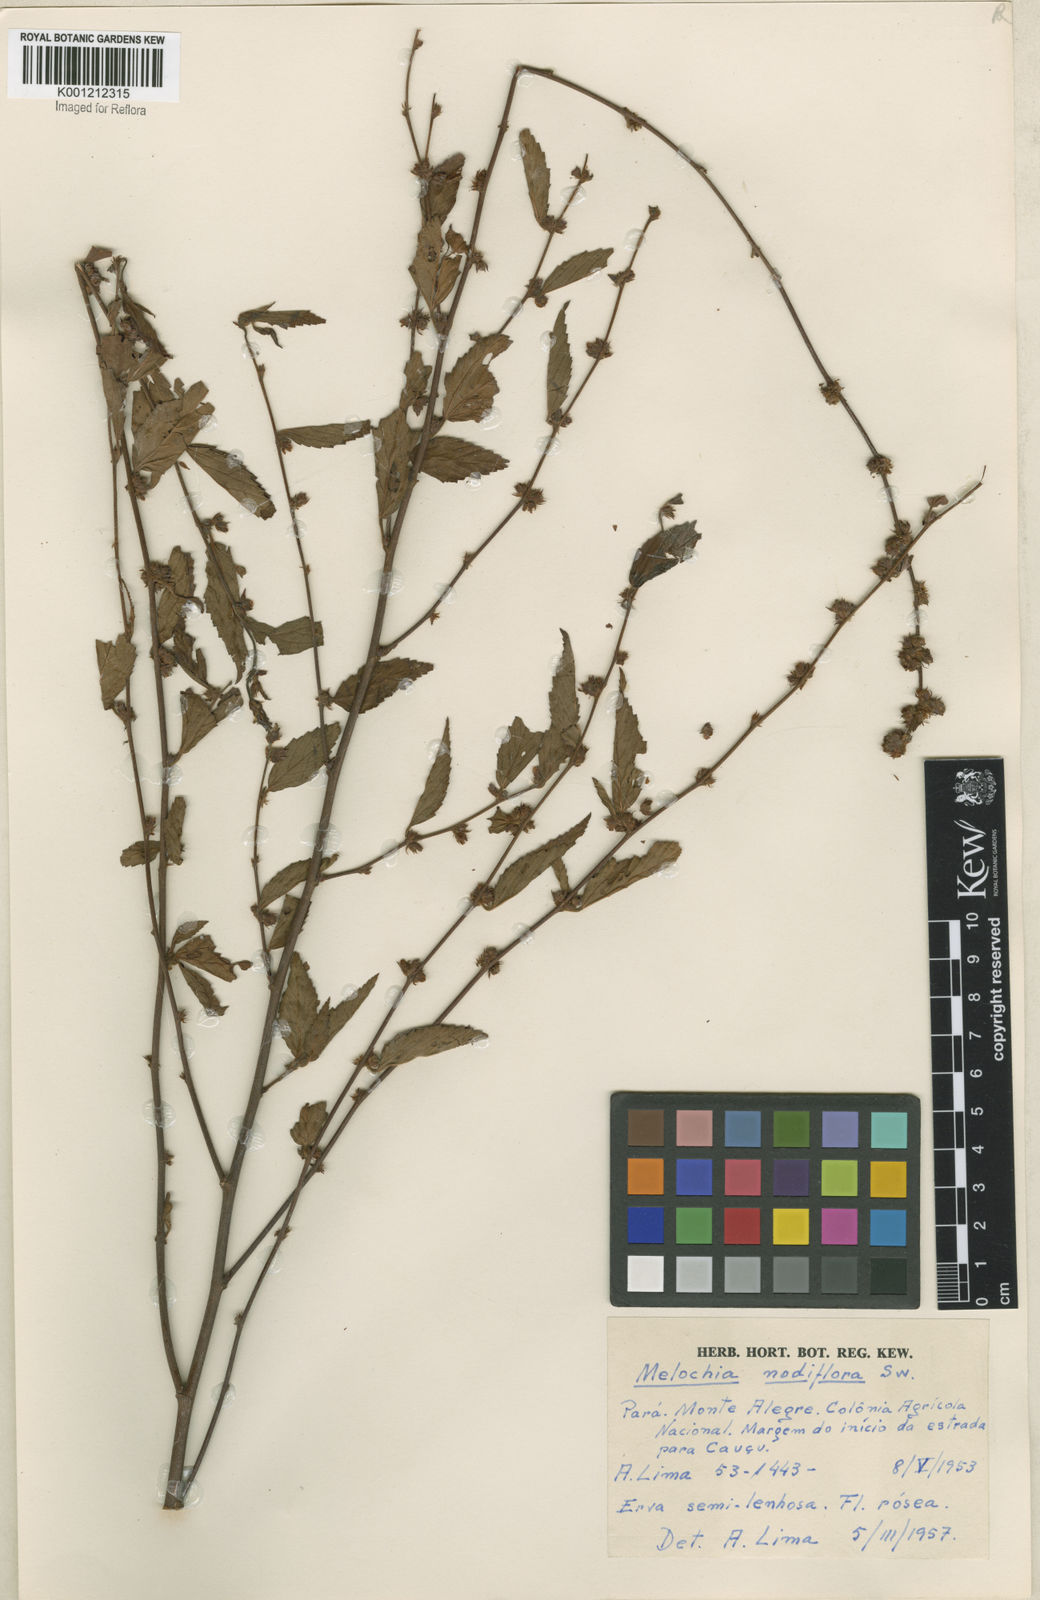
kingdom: Plantae
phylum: Tracheophyta
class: Magnoliopsida
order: Malvales
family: Malvaceae
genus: Melochia
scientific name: Melochia nodiflora
